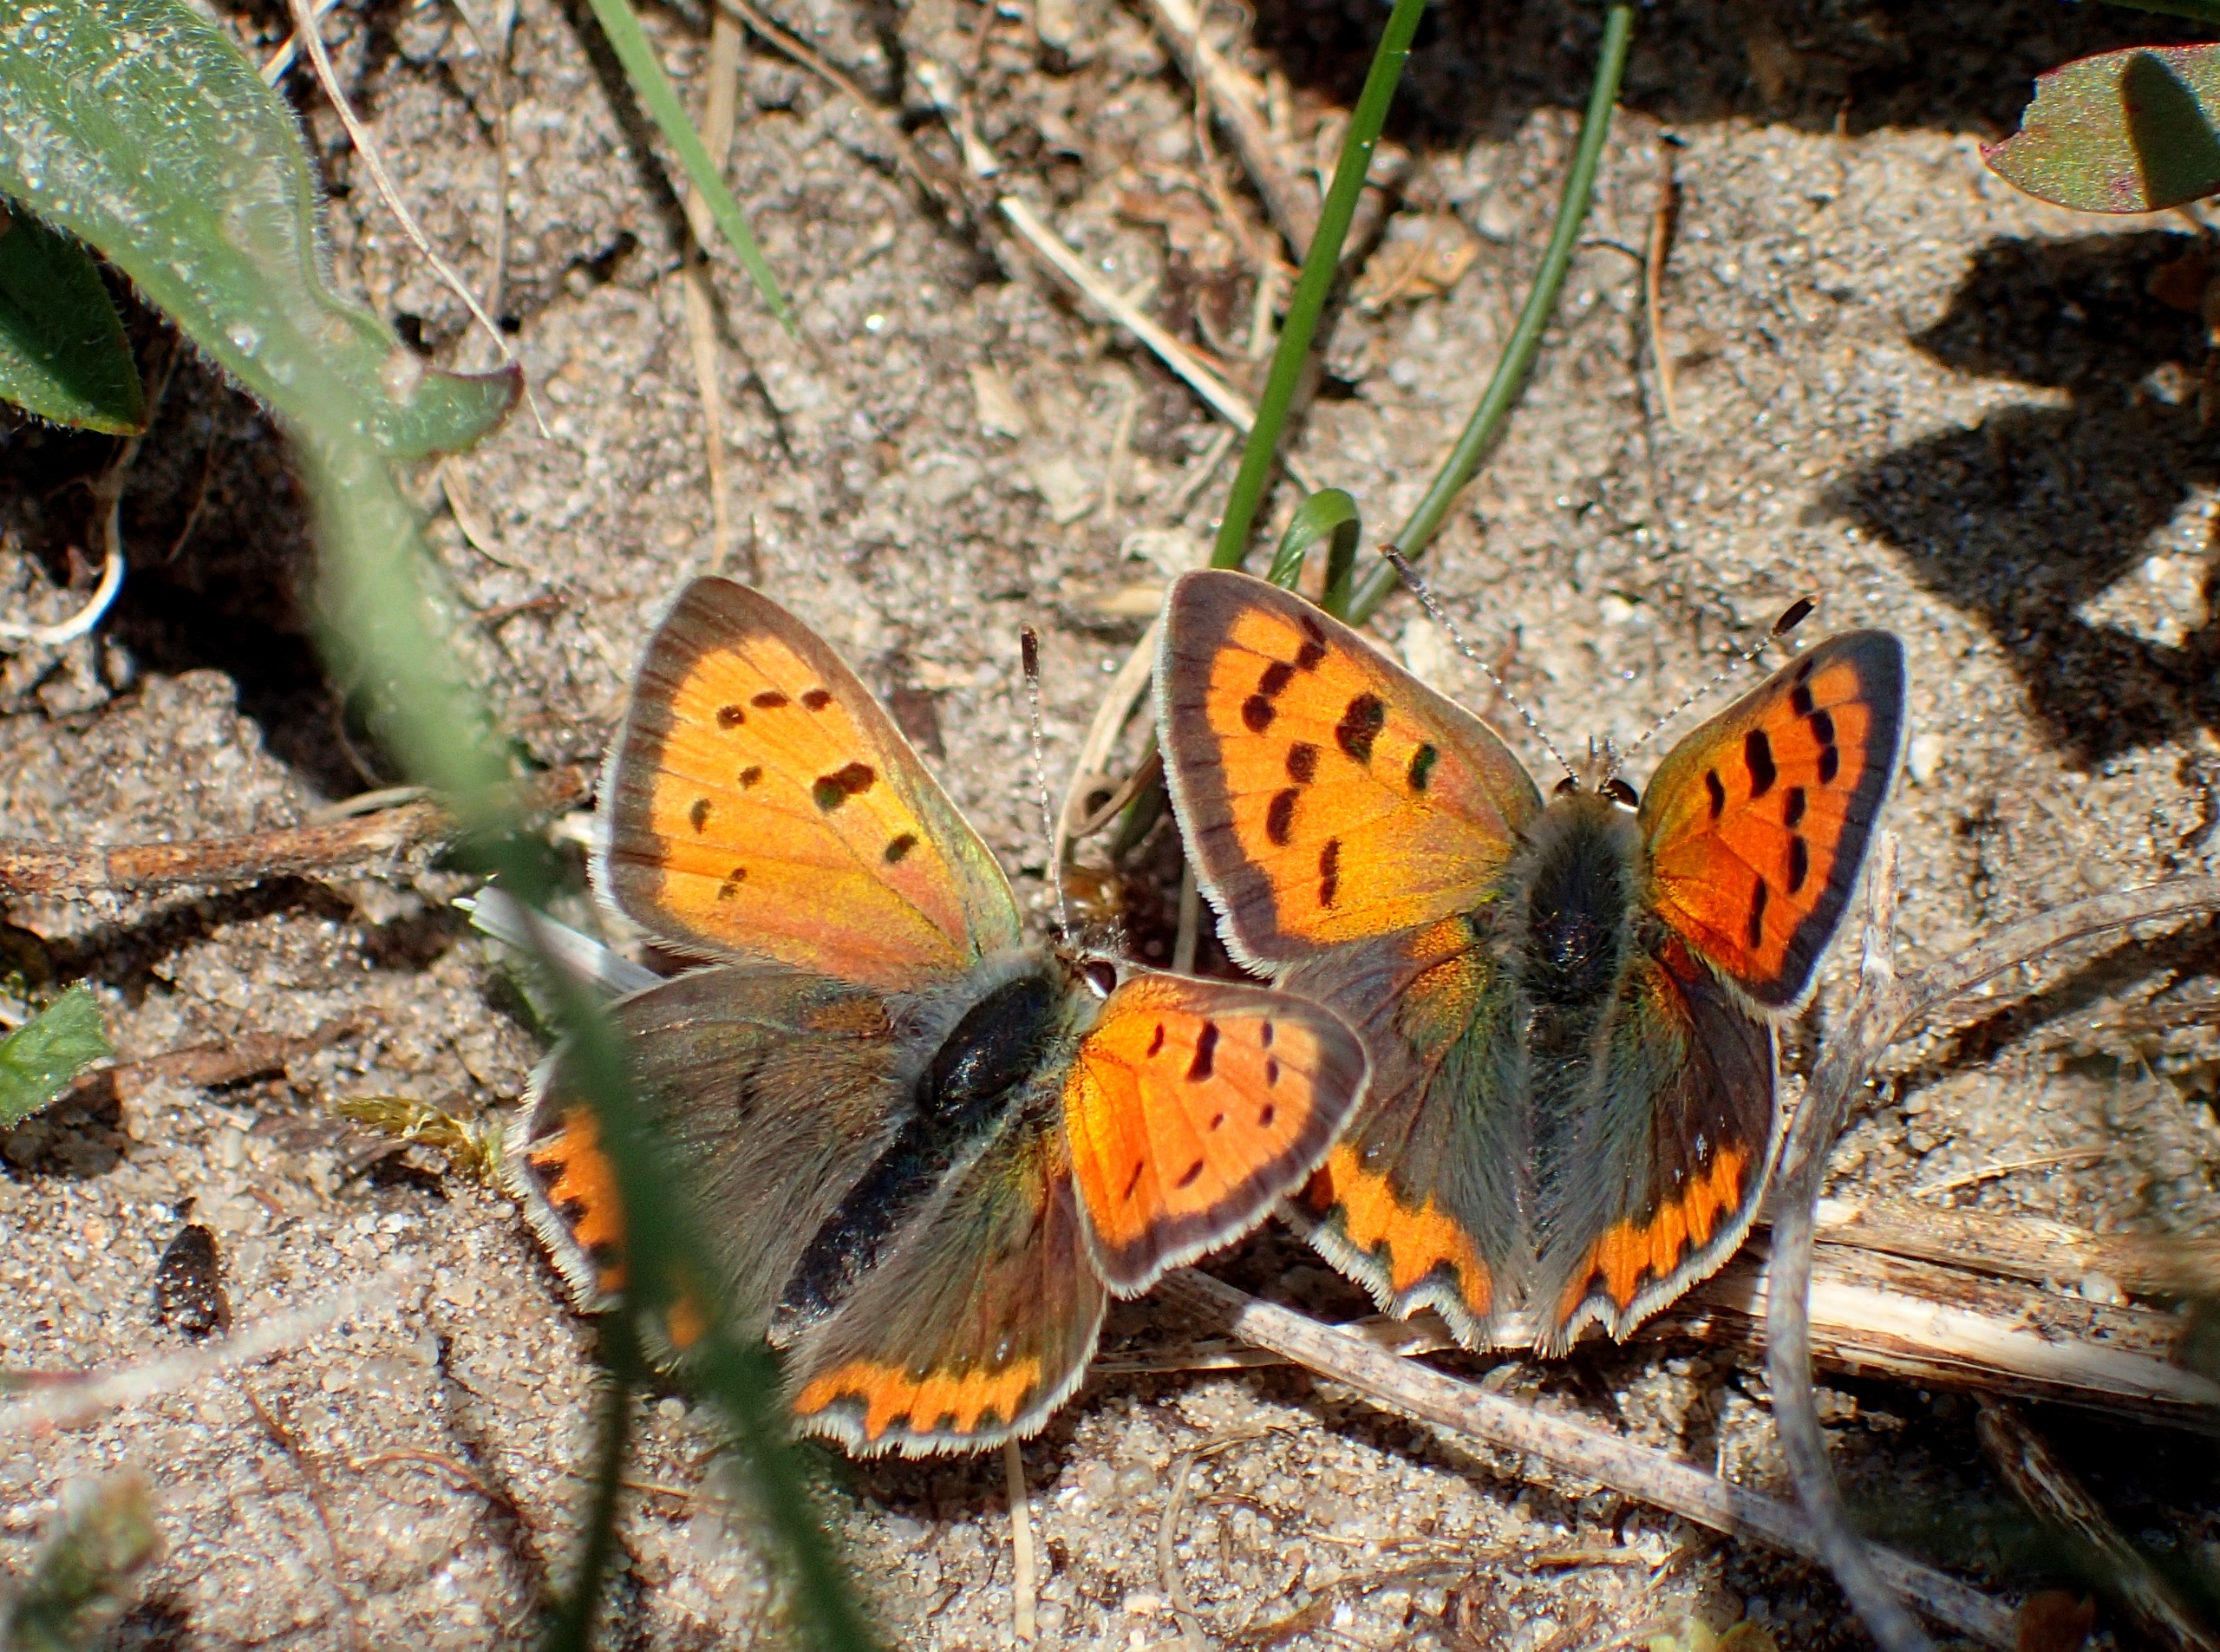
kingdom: Animalia
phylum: Arthropoda
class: Insecta
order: Lepidoptera
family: Lycaenidae
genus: Lycaena
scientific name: Lycaena phlaeas
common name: Lille ildfugl
